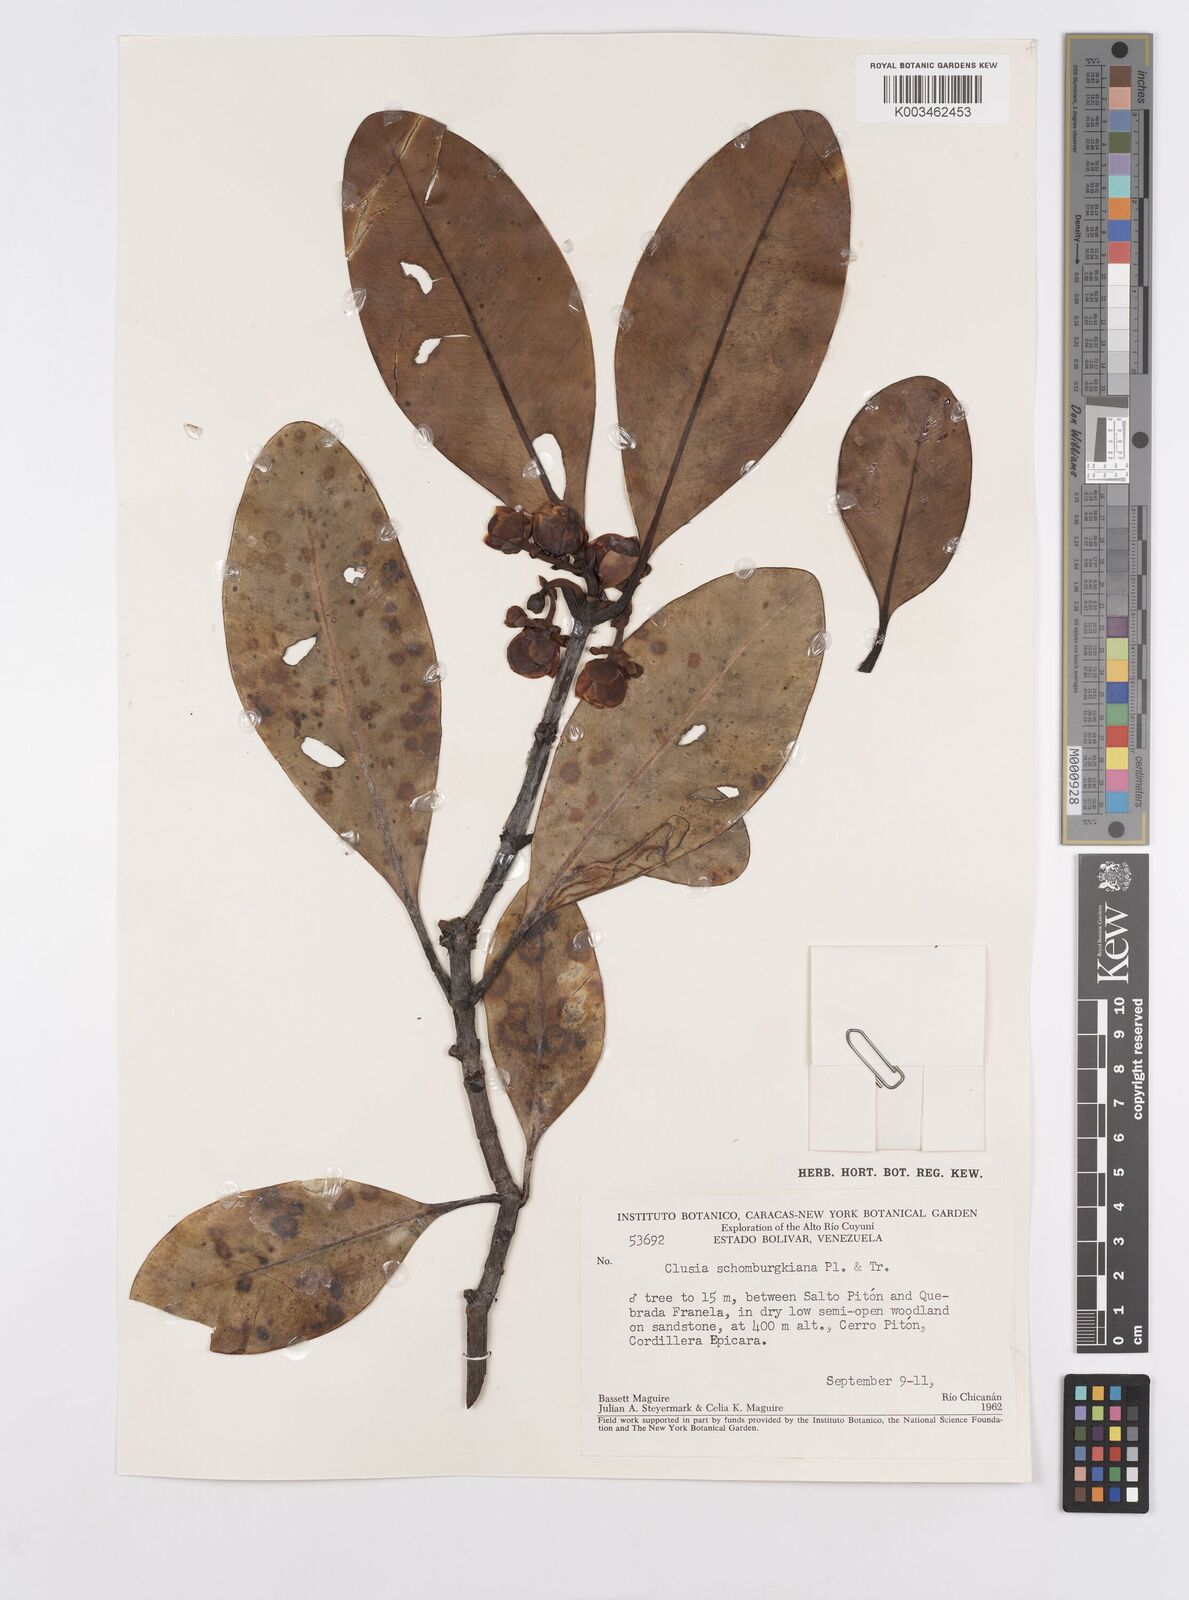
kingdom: Plantae
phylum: Tracheophyta
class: Magnoliopsida
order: Malpighiales
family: Clusiaceae
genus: Clusia
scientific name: Clusia schomburgkiana
